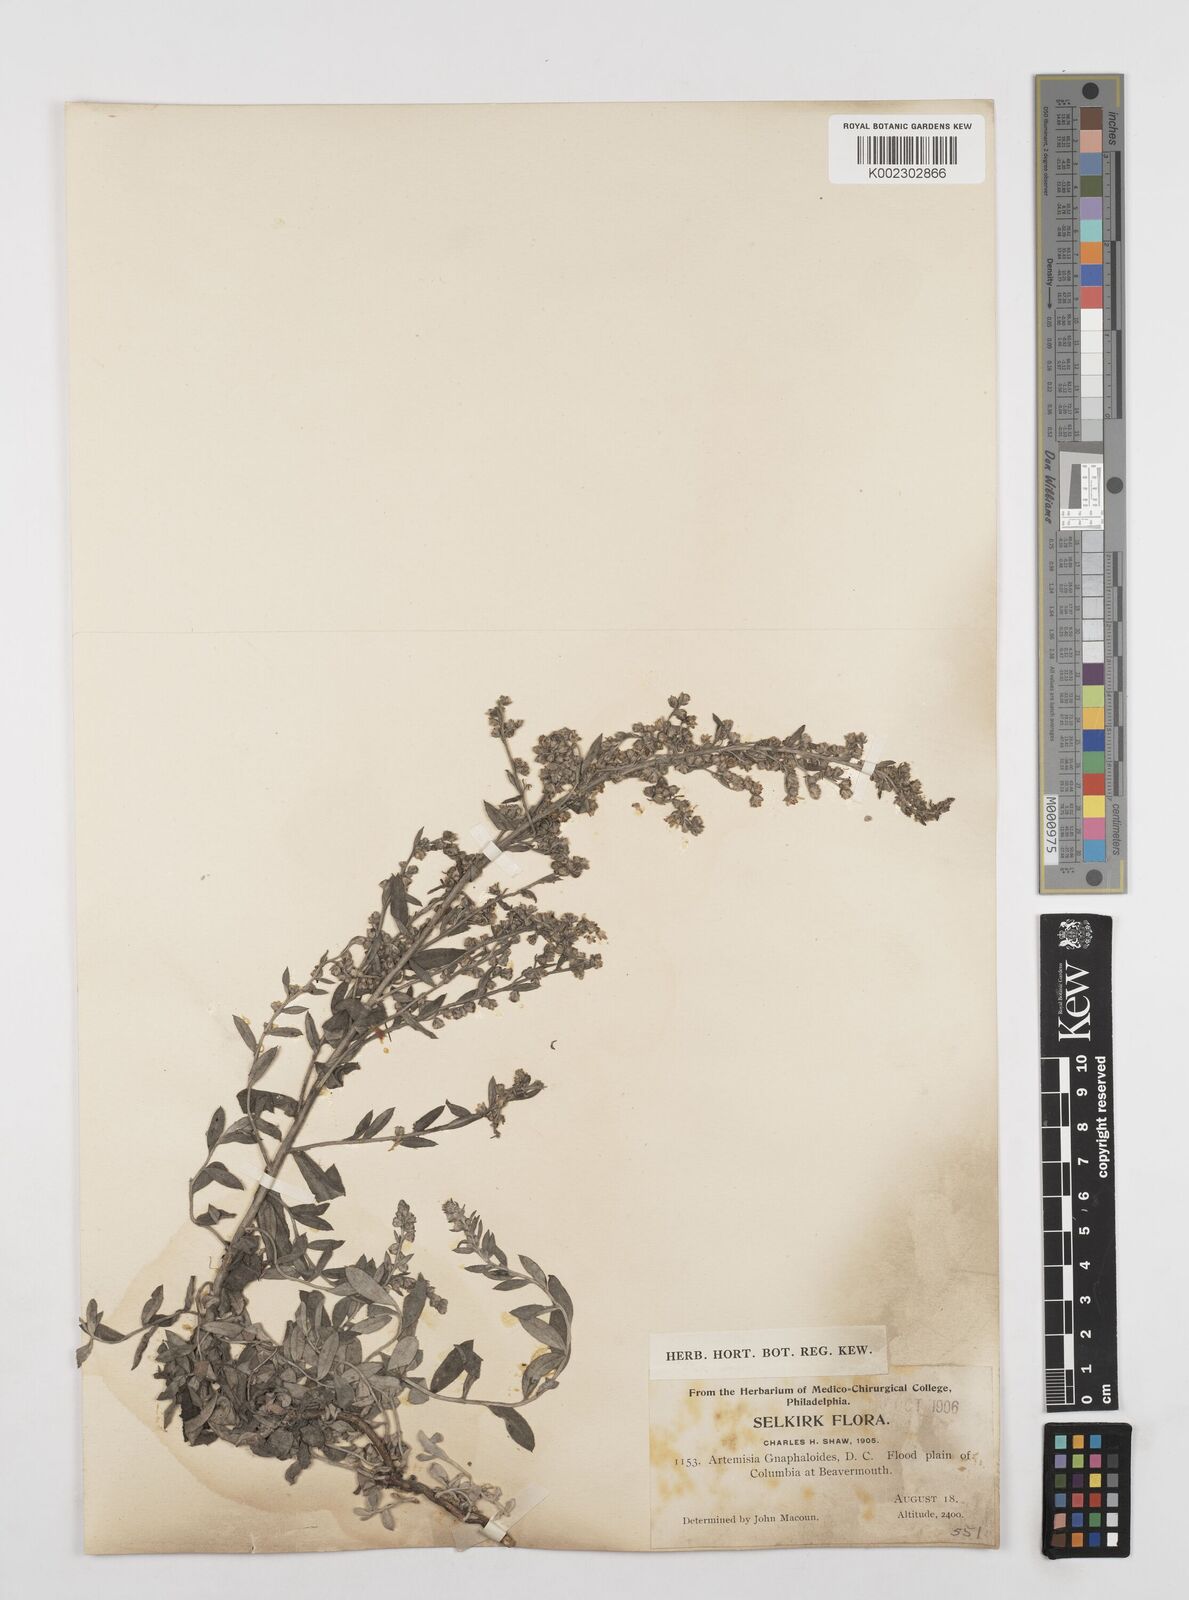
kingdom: Plantae
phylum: Tracheophyta
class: Magnoliopsida
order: Asterales
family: Asteraceae
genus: Artemisia
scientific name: Artemisia ludoviciana
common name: Western mugwort
